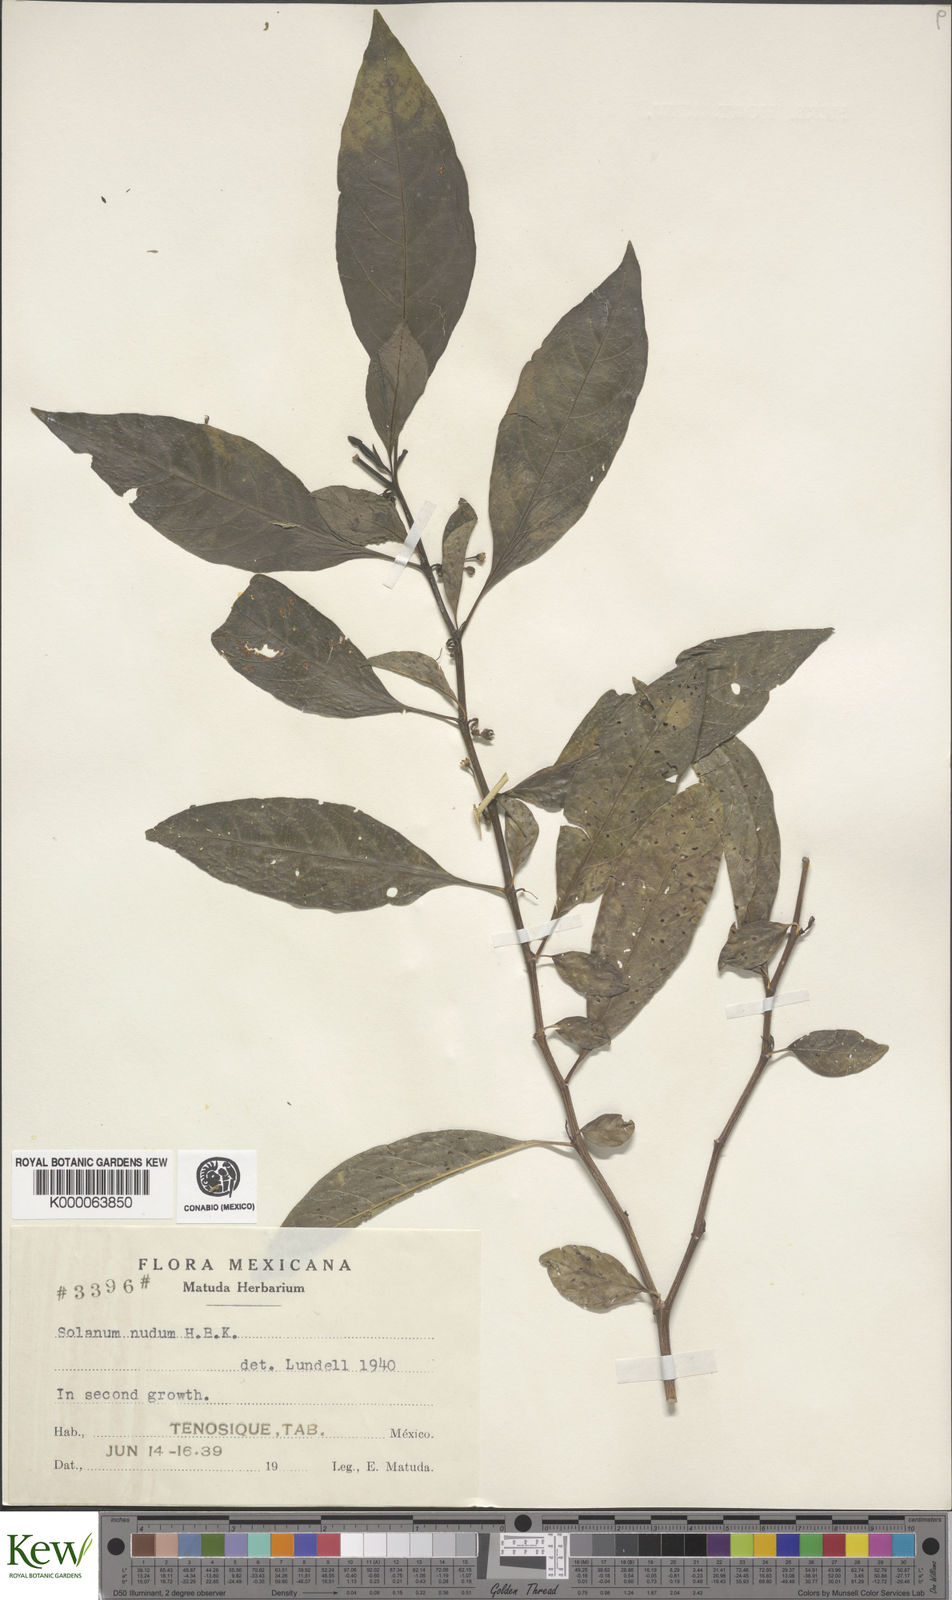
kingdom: Plantae
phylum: Tracheophyta
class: Magnoliopsida
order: Solanales
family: Solanaceae
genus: Solanum
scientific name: Solanum nudum
